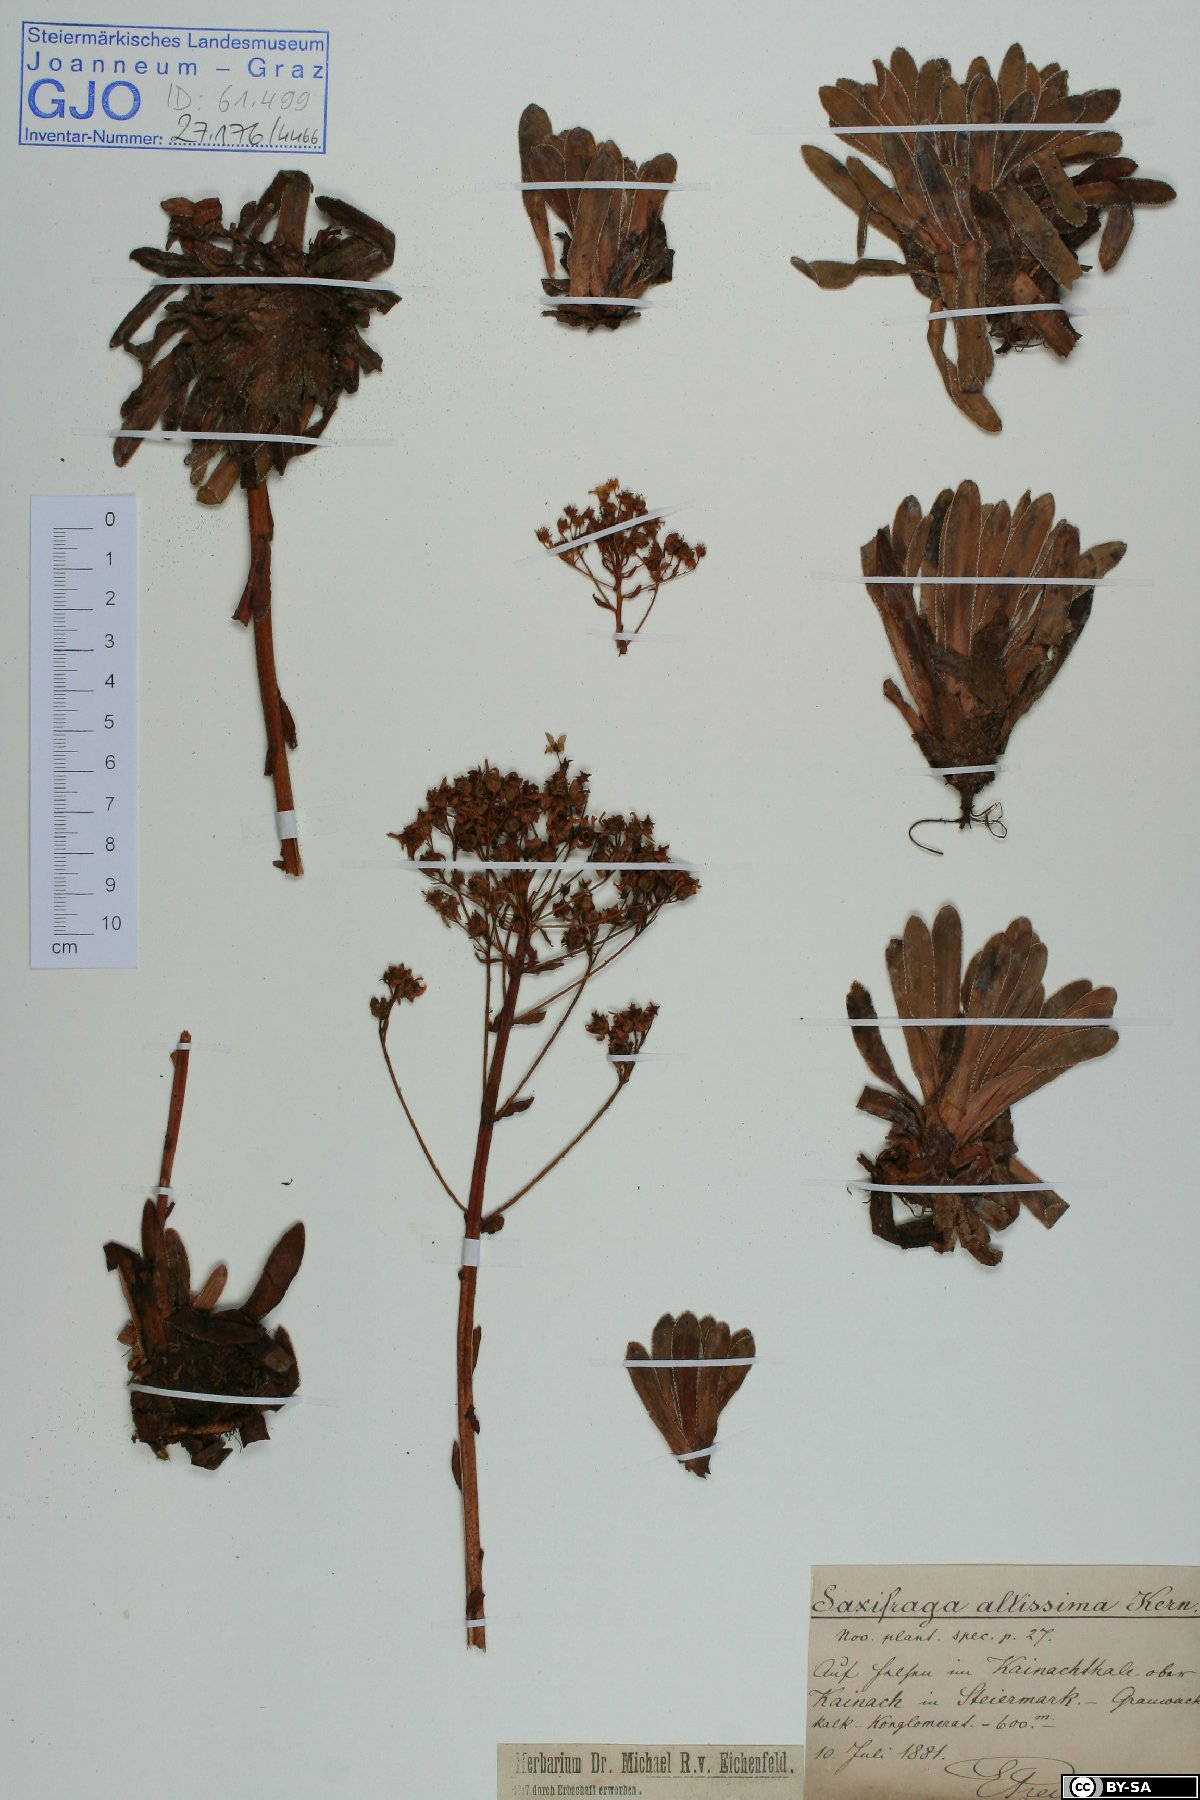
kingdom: Plantae
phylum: Tracheophyta
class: Magnoliopsida
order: Saxifragales
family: Saxifragaceae
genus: Saxifraga
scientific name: Saxifraga hostii
